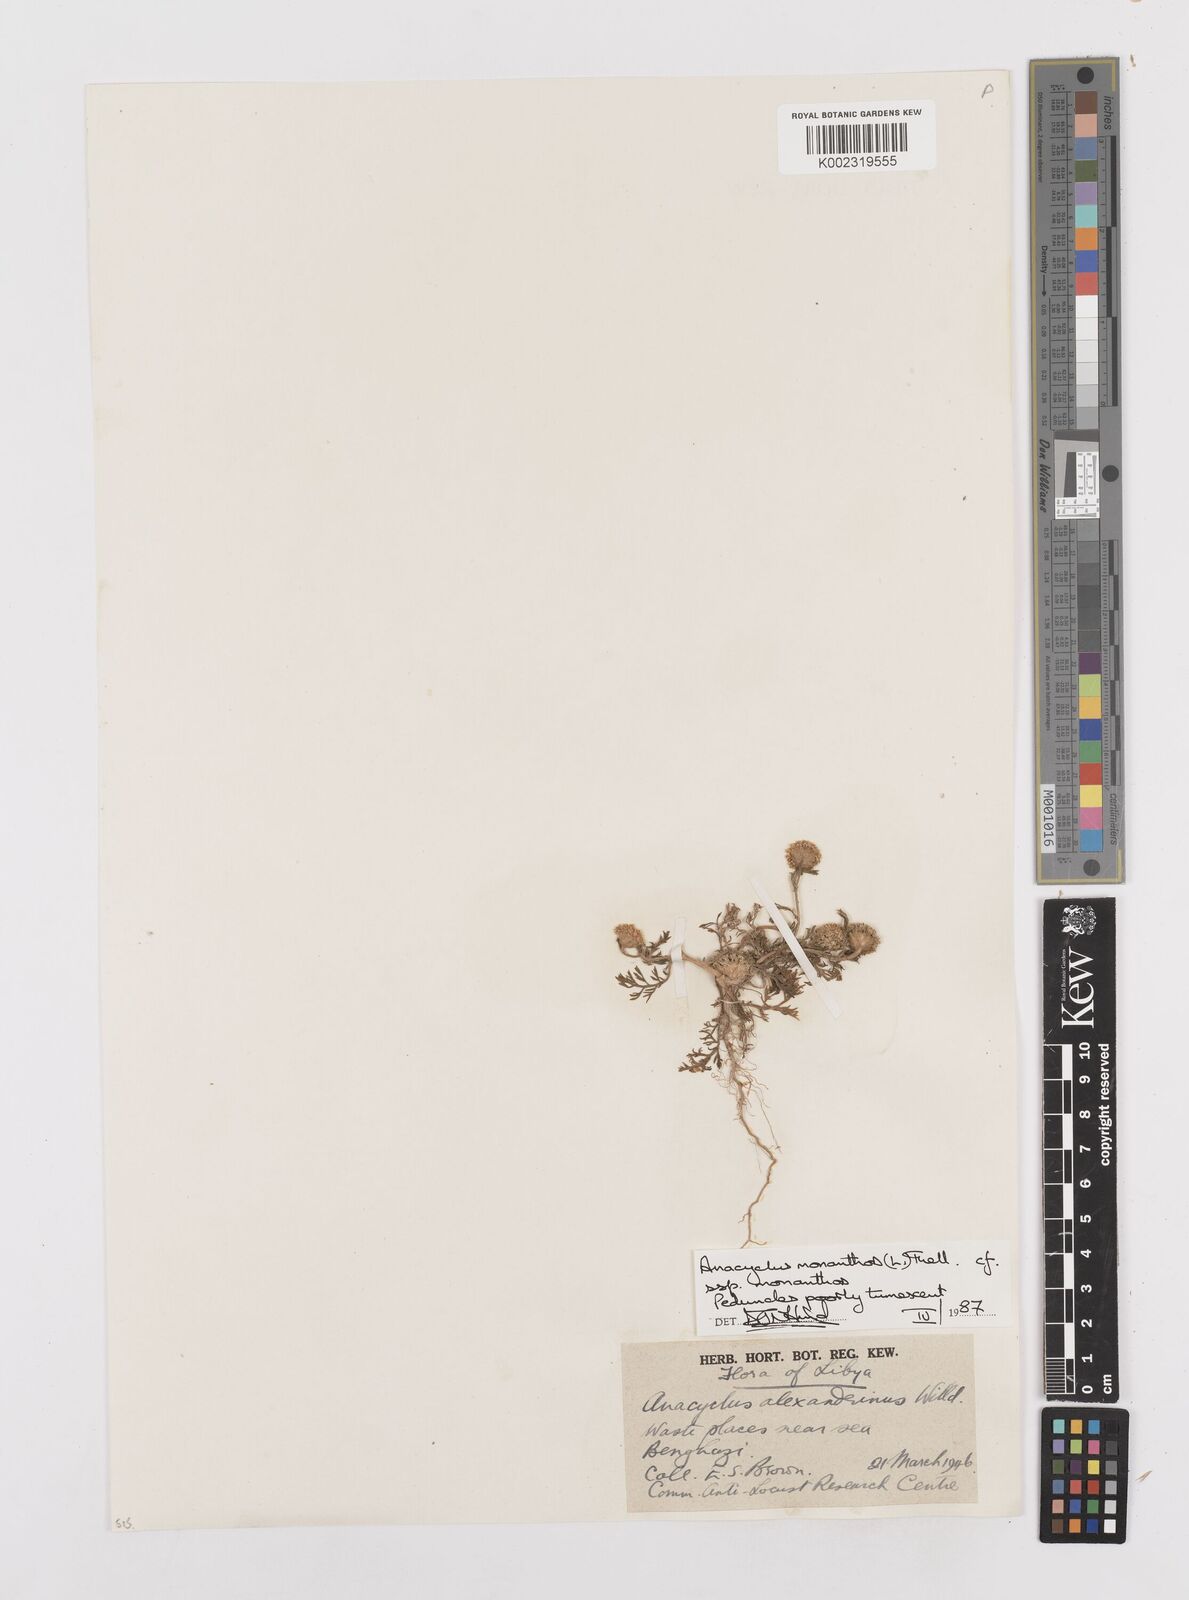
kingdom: Plantae
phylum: Tracheophyta
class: Magnoliopsida
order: Asterales
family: Asteraceae
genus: Anacyclus
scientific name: Anacyclus monanthos
